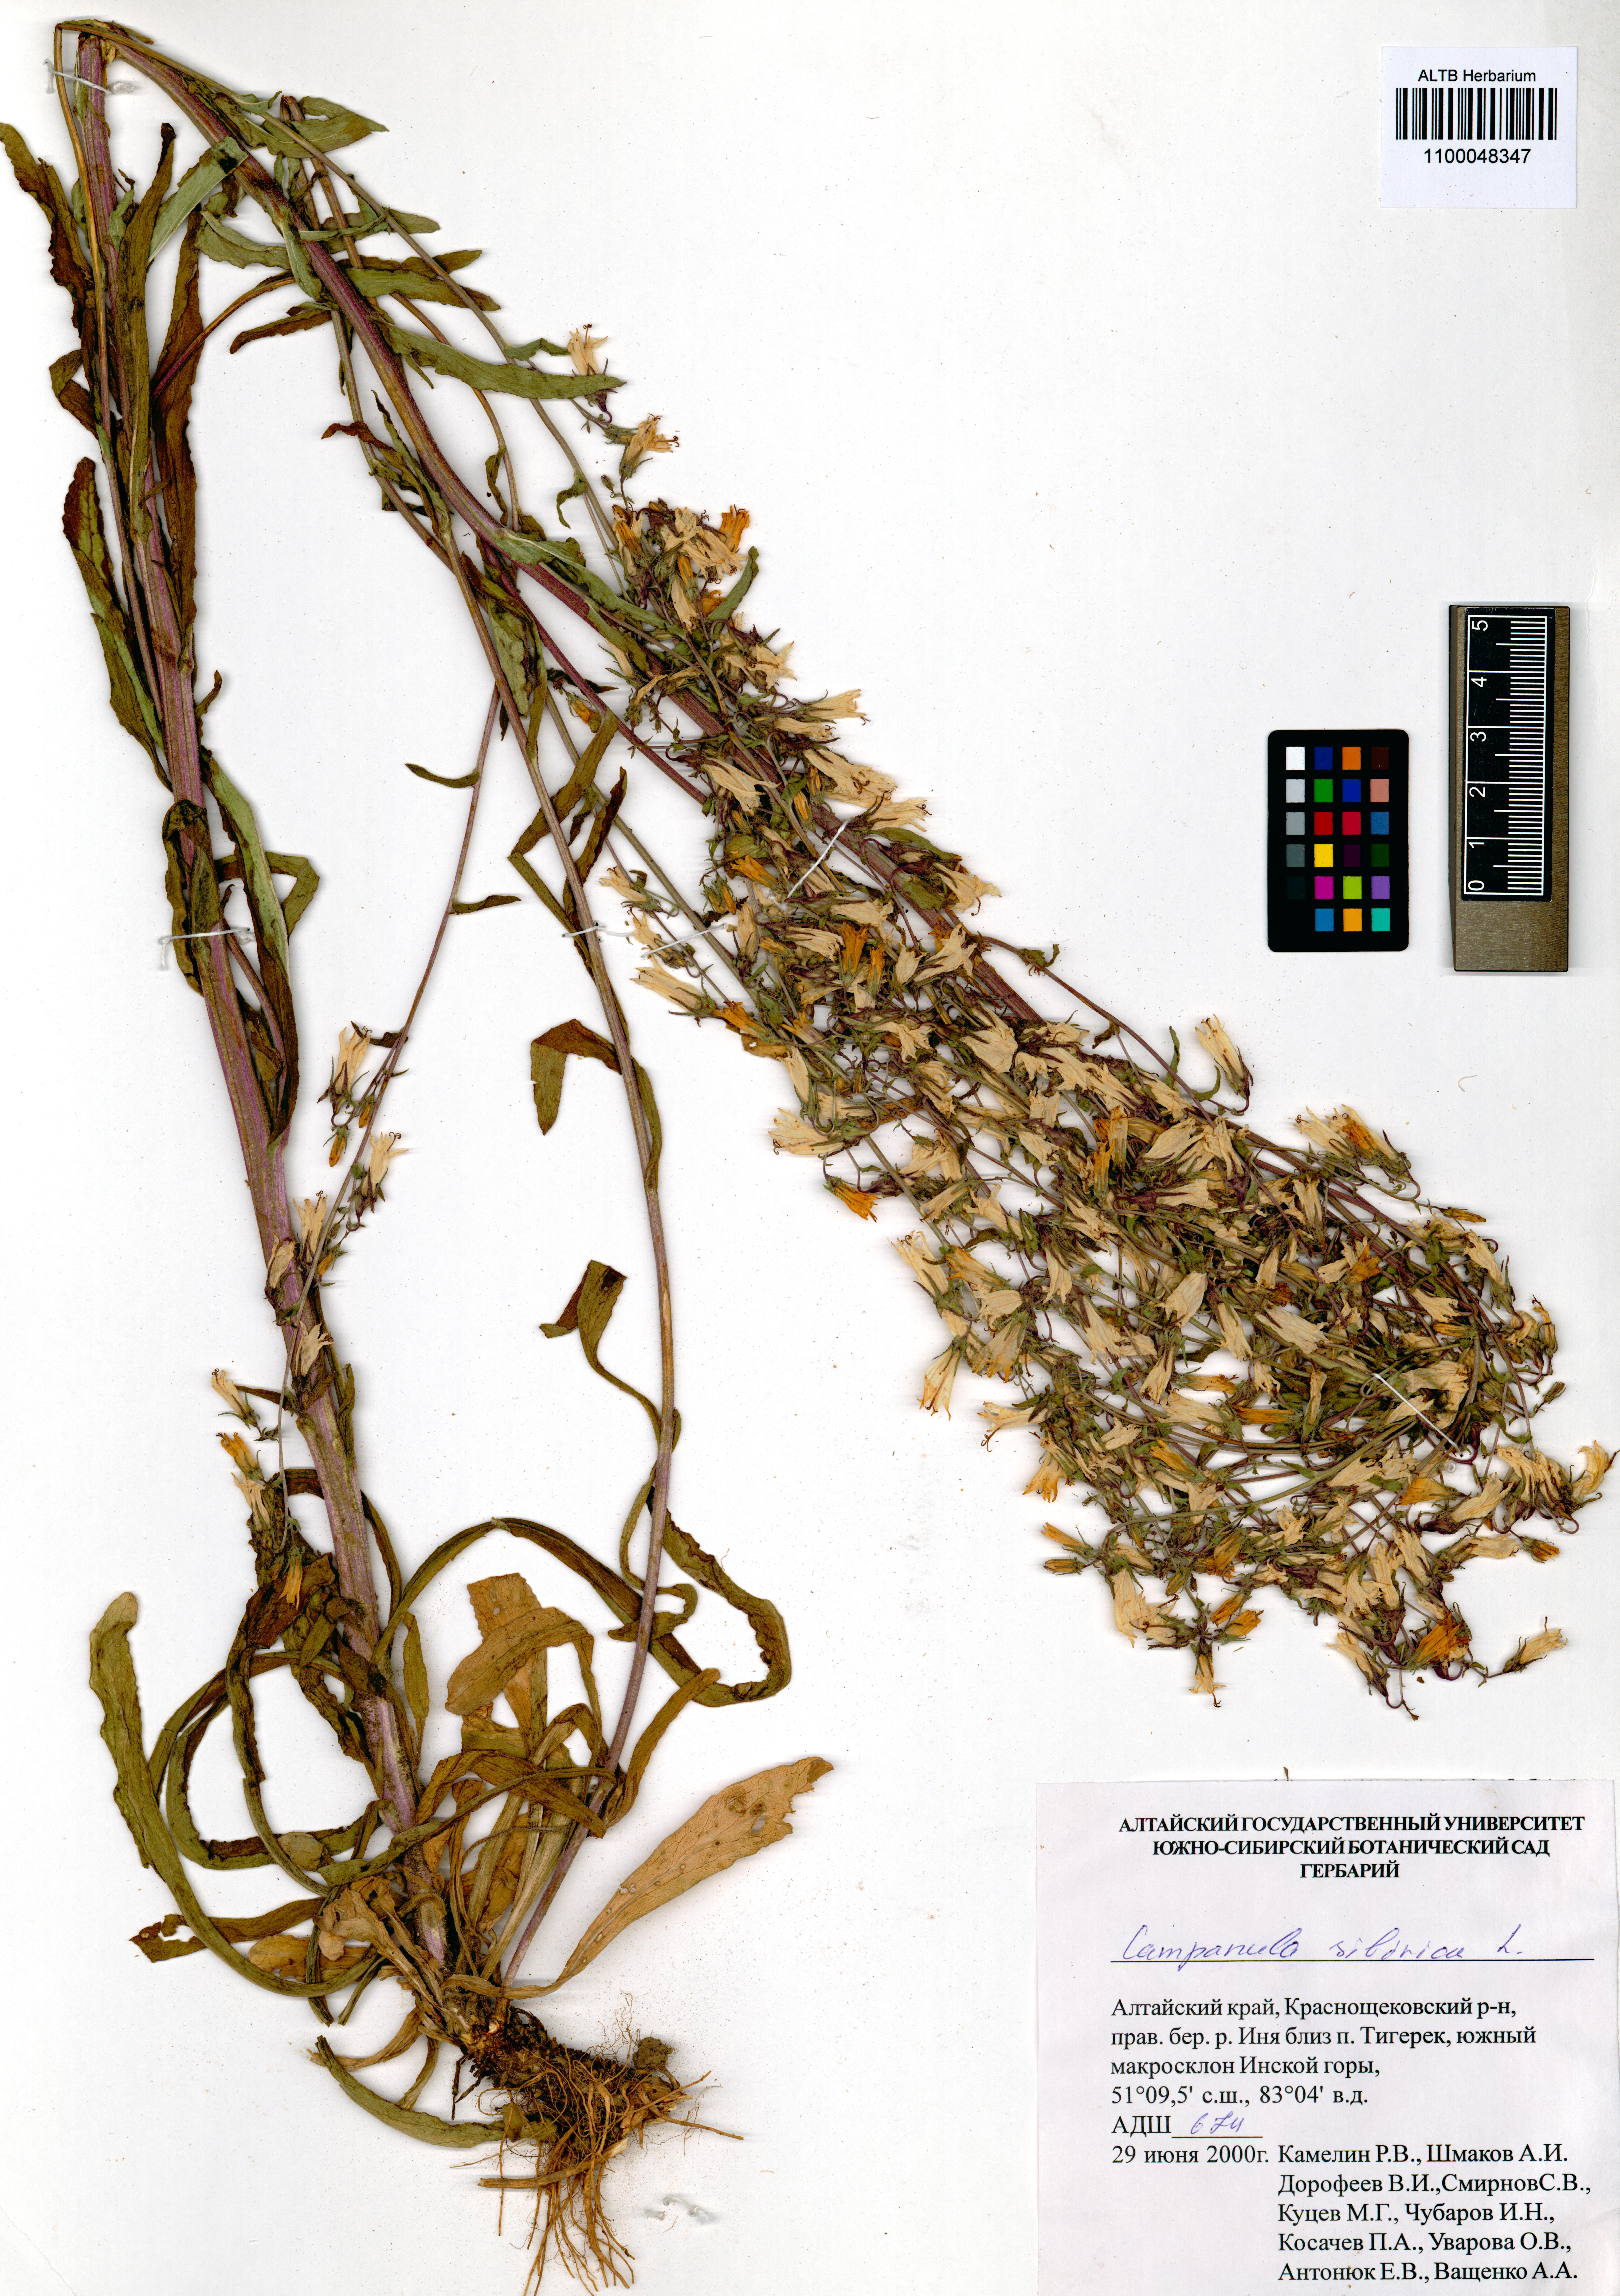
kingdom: Plantae
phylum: Tracheophyta
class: Magnoliopsida
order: Asterales
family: Campanulaceae
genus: Campanula
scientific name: Campanula sibirica
